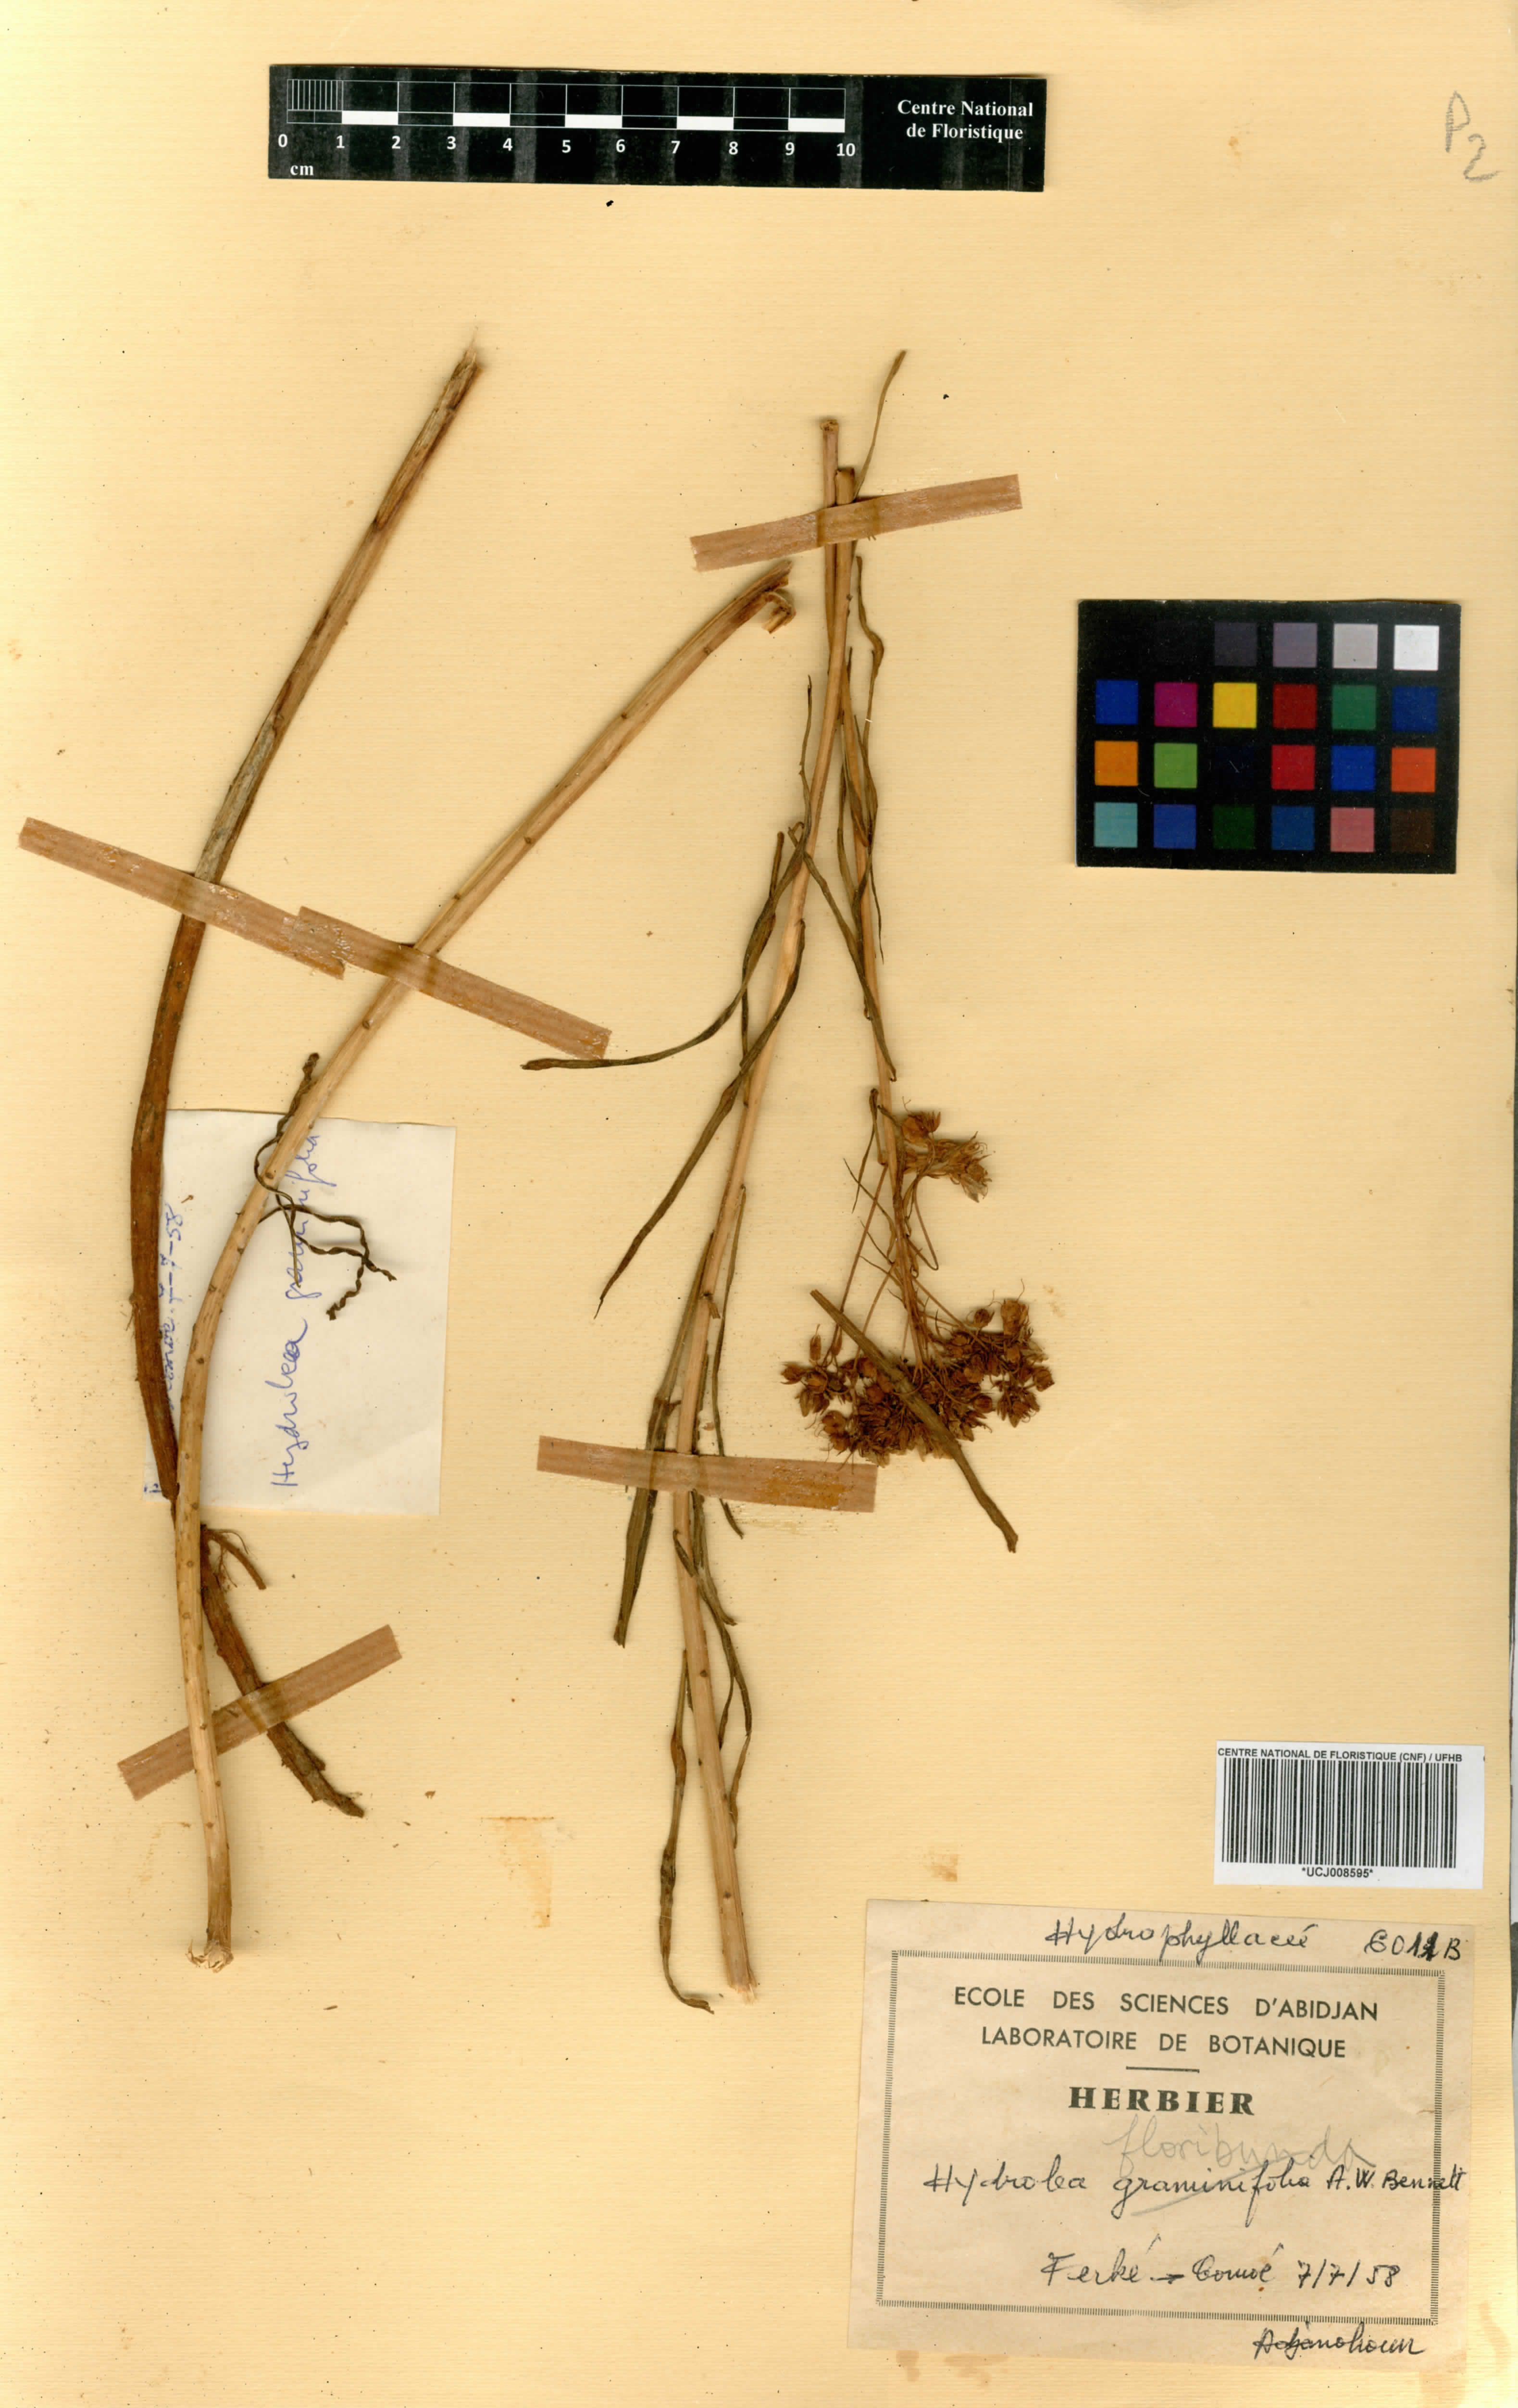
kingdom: Plantae
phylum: Tracheophyta
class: Magnoliopsida
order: Boraginales
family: Hydrophyllaceae
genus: Hydrolea
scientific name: Hydrolea
